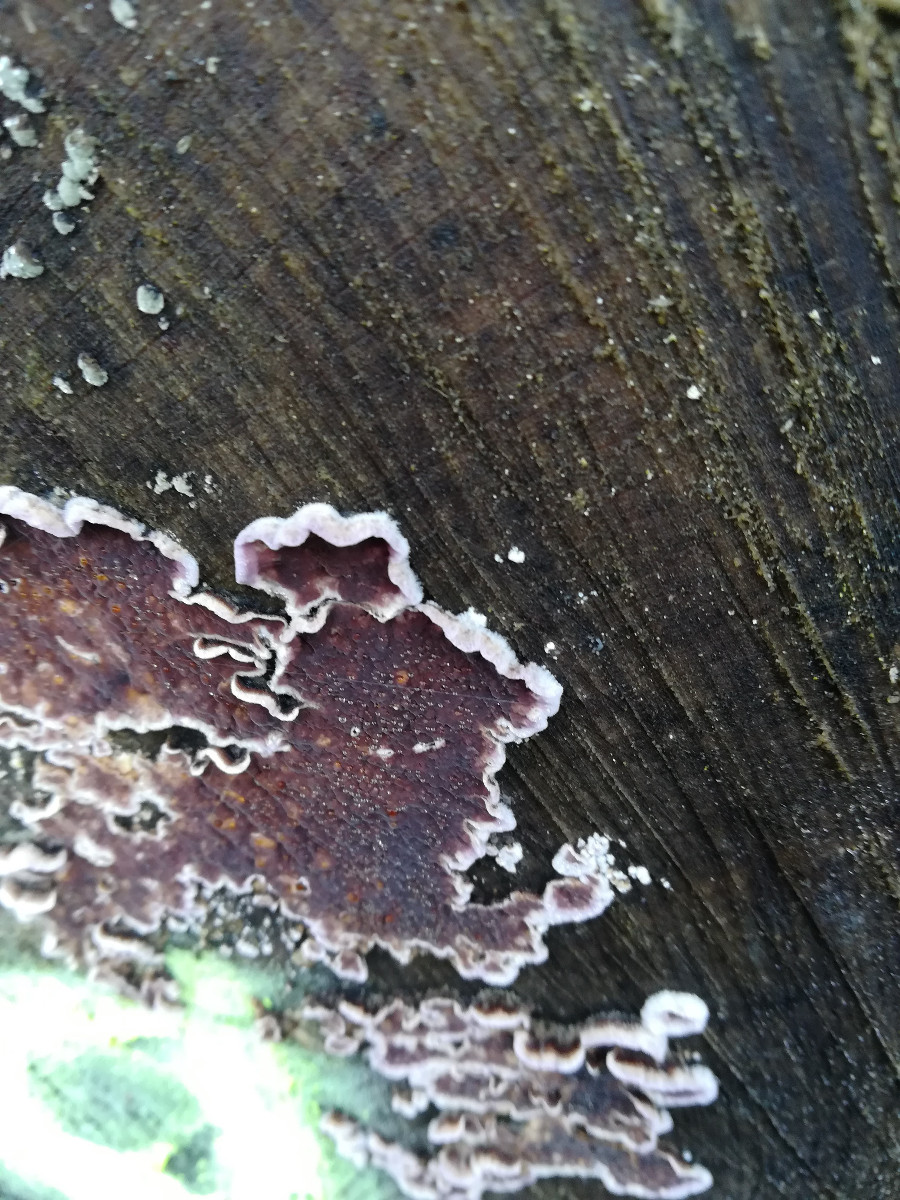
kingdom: Fungi
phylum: Basidiomycota
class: Agaricomycetes
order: Agaricales
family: Cyphellaceae
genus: Chondrostereum
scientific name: Chondrostereum purpureum
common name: purpurlædersvamp
